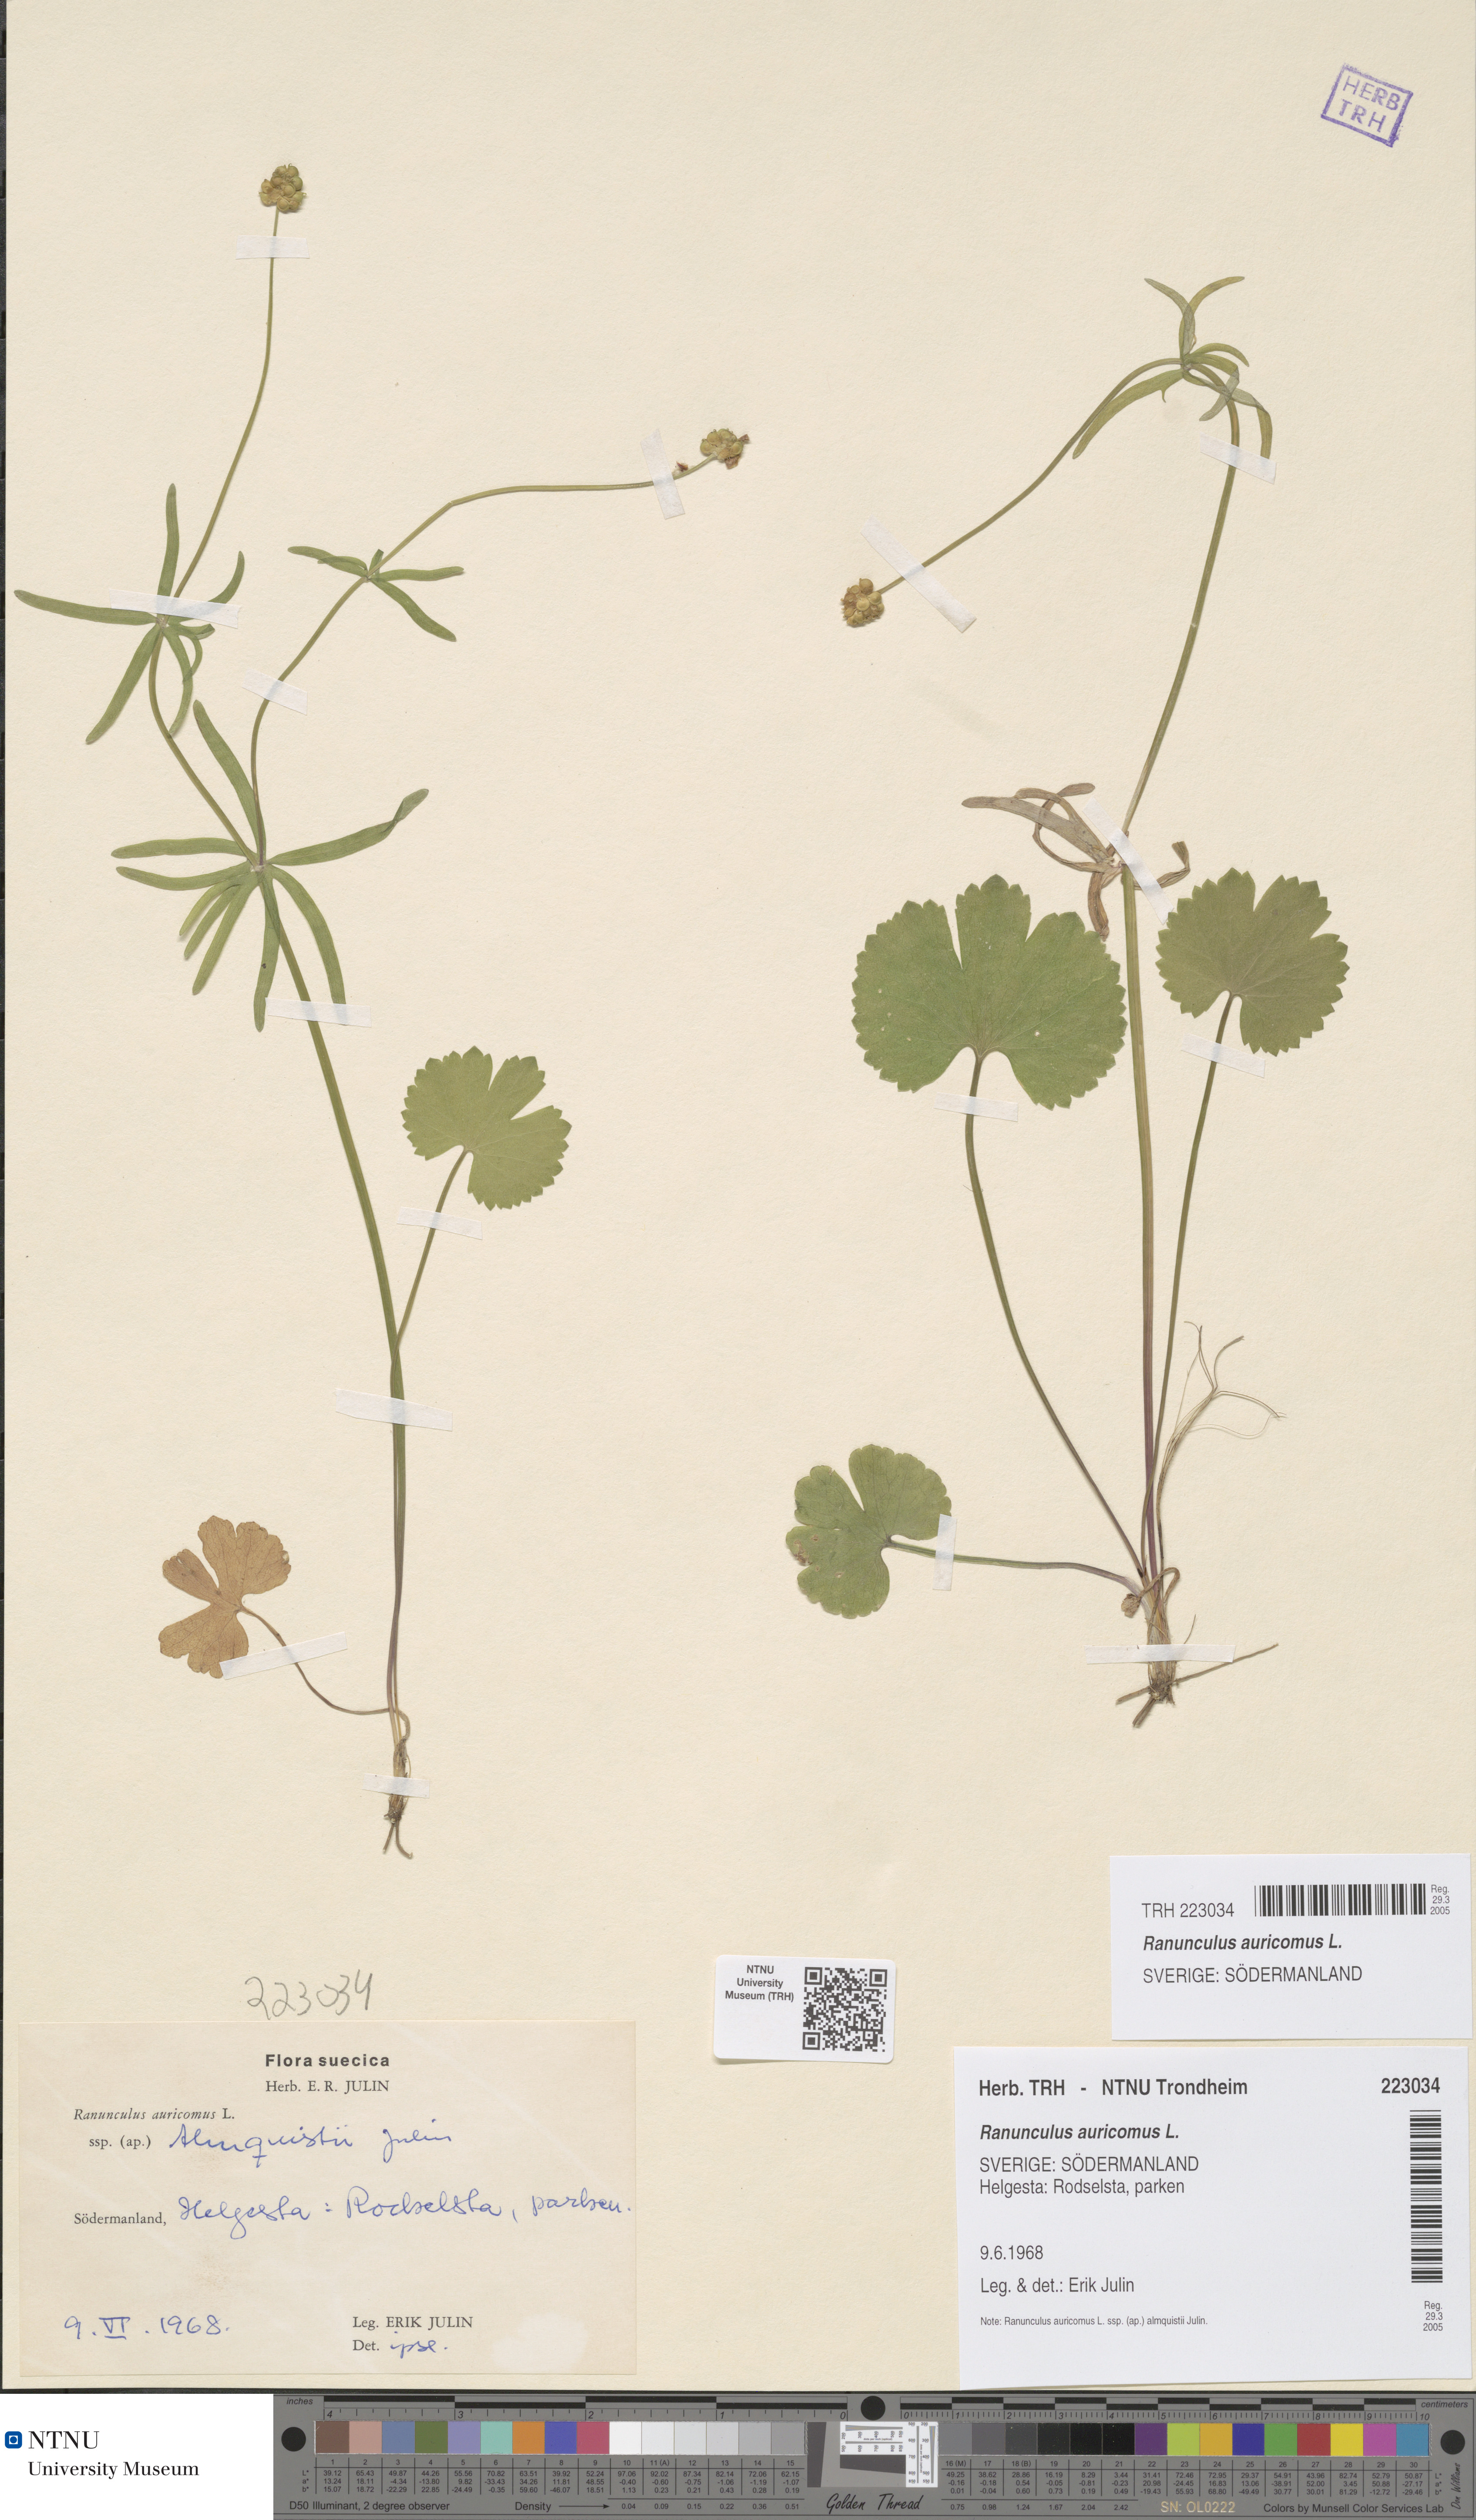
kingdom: Plantae
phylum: Tracheophyta
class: Magnoliopsida
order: Ranunculales
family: Ranunculaceae
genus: Ranunculus
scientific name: Ranunculus auricomus
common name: Goldilocks buttercup
